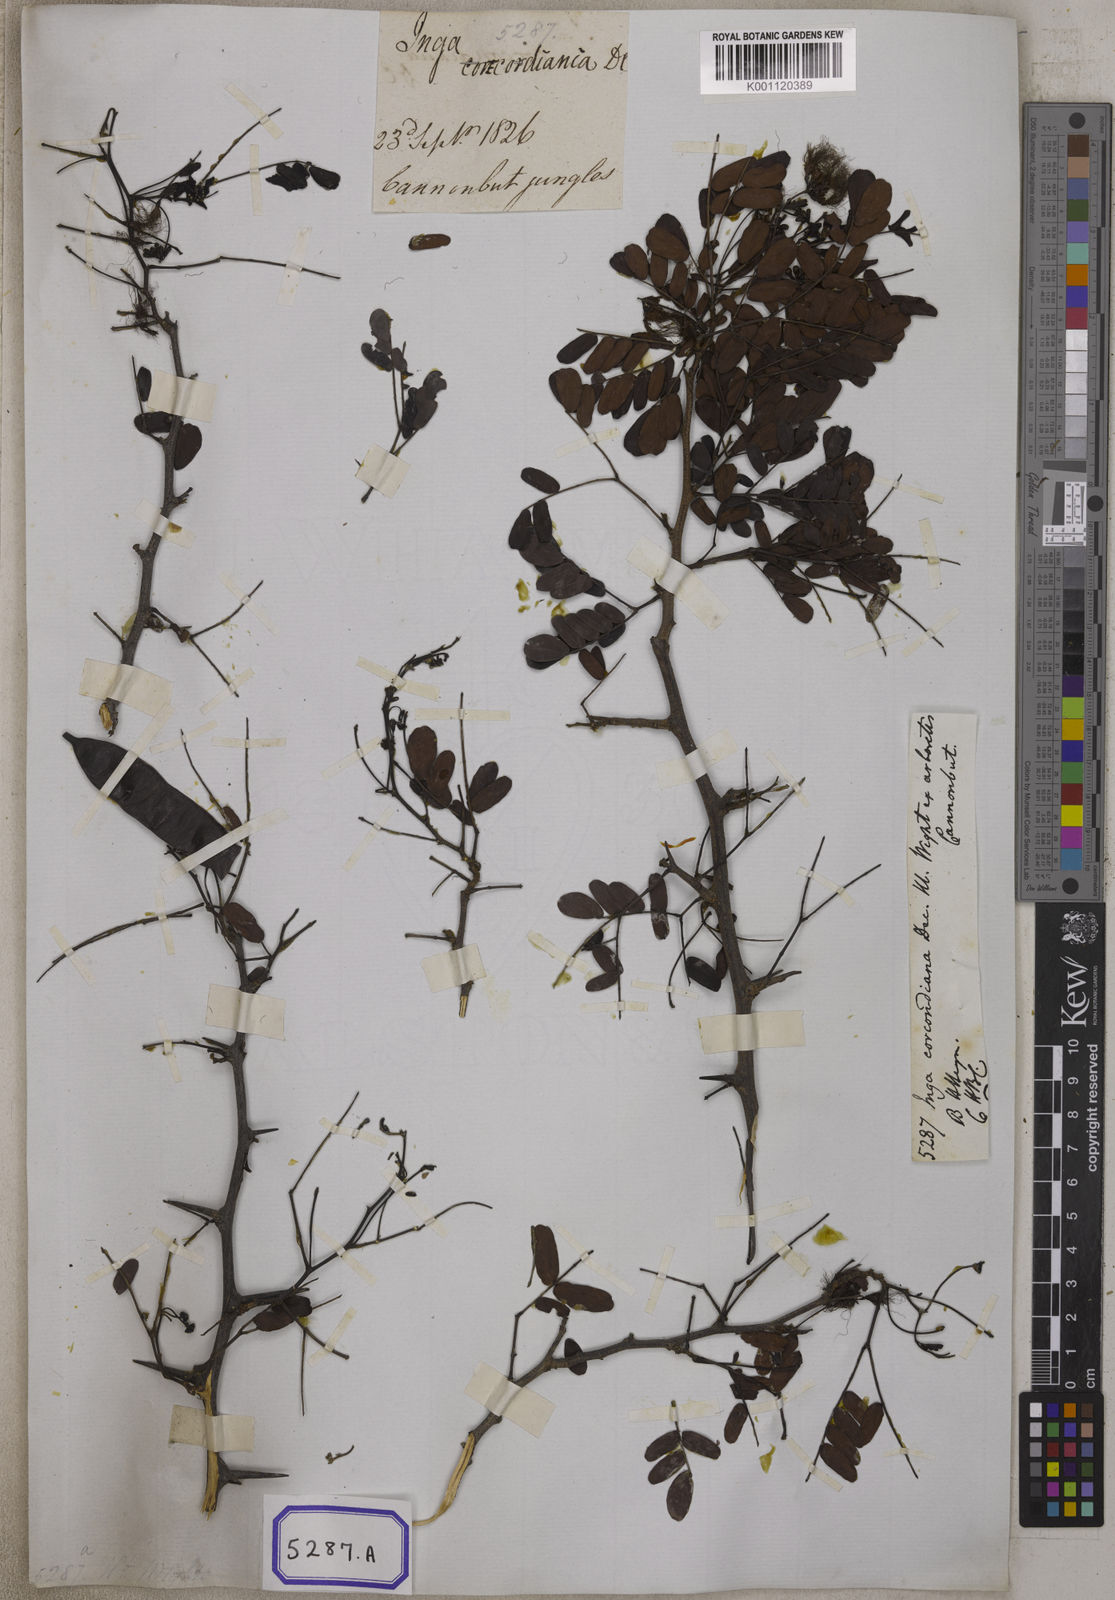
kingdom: Plantae
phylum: Tracheophyta
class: Magnoliopsida
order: Fabales
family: Fabaceae
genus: Cathormion
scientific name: Cathormion umbellatum
